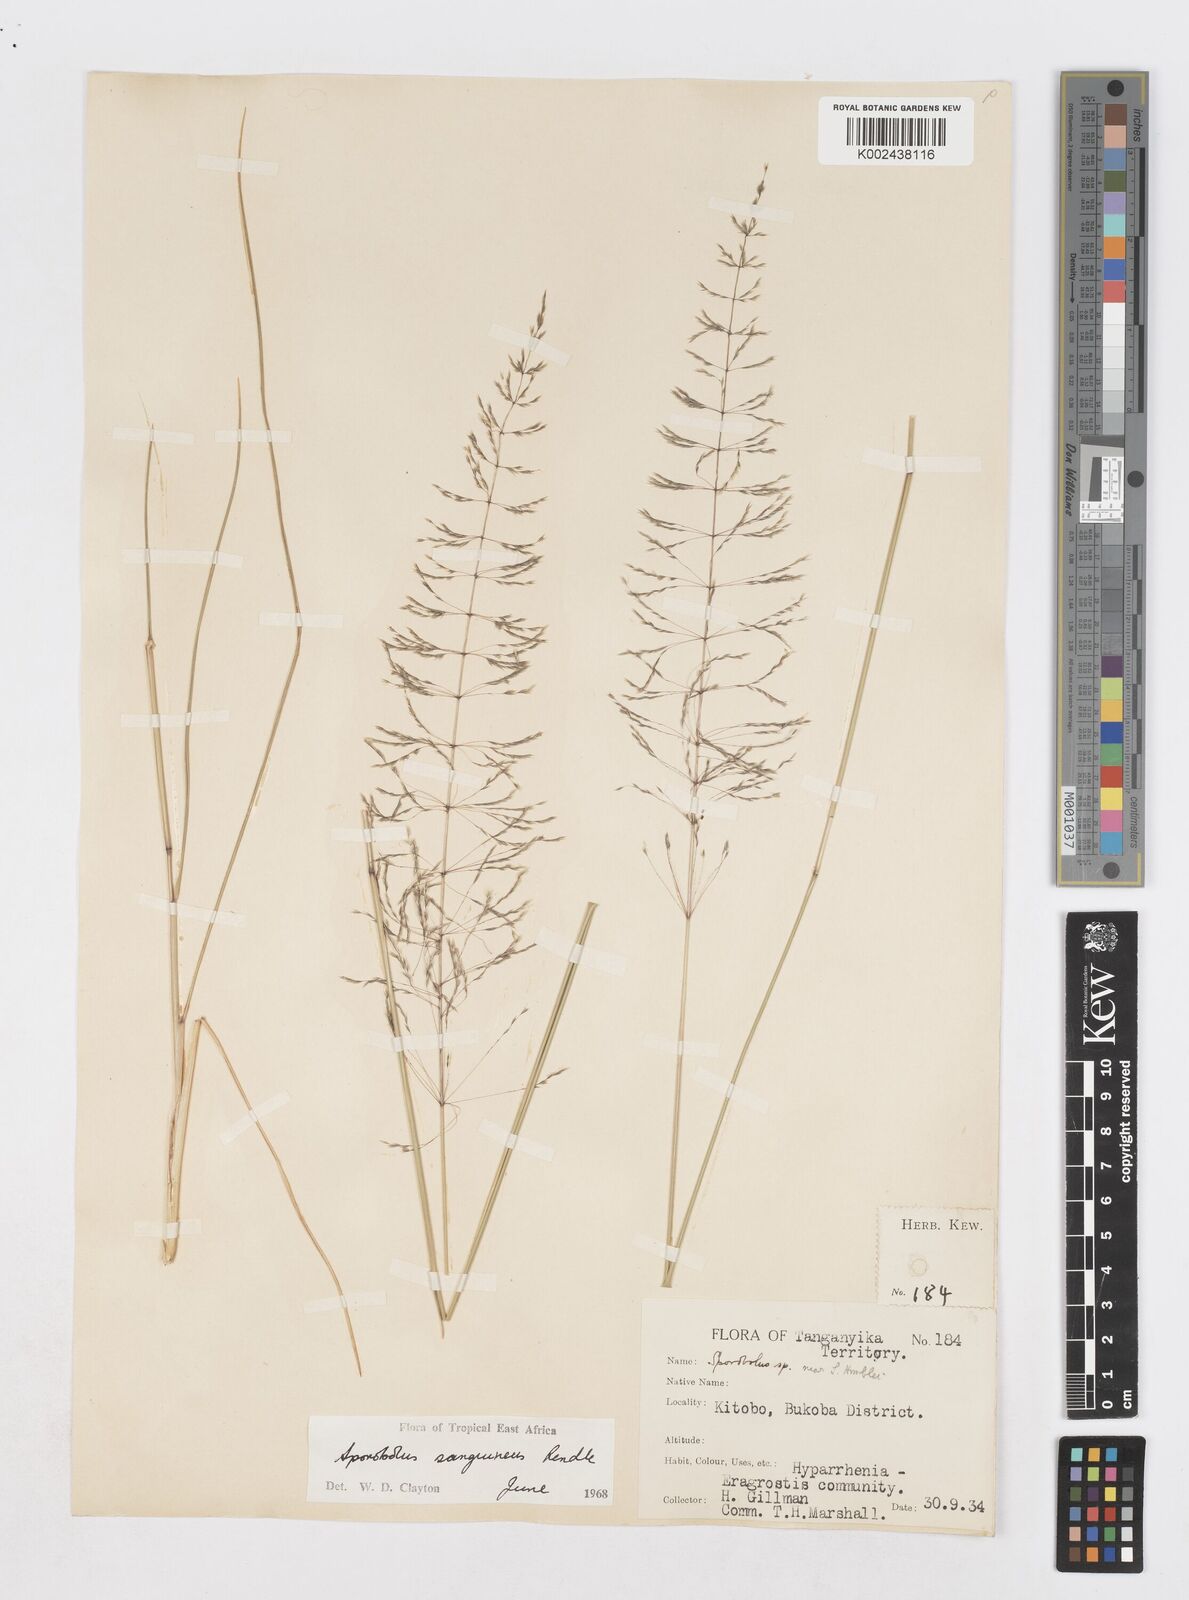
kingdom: Plantae
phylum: Tracheophyta
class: Liliopsida
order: Poales
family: Poaceae
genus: Sporobolus
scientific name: Sporobolus sanguineus
